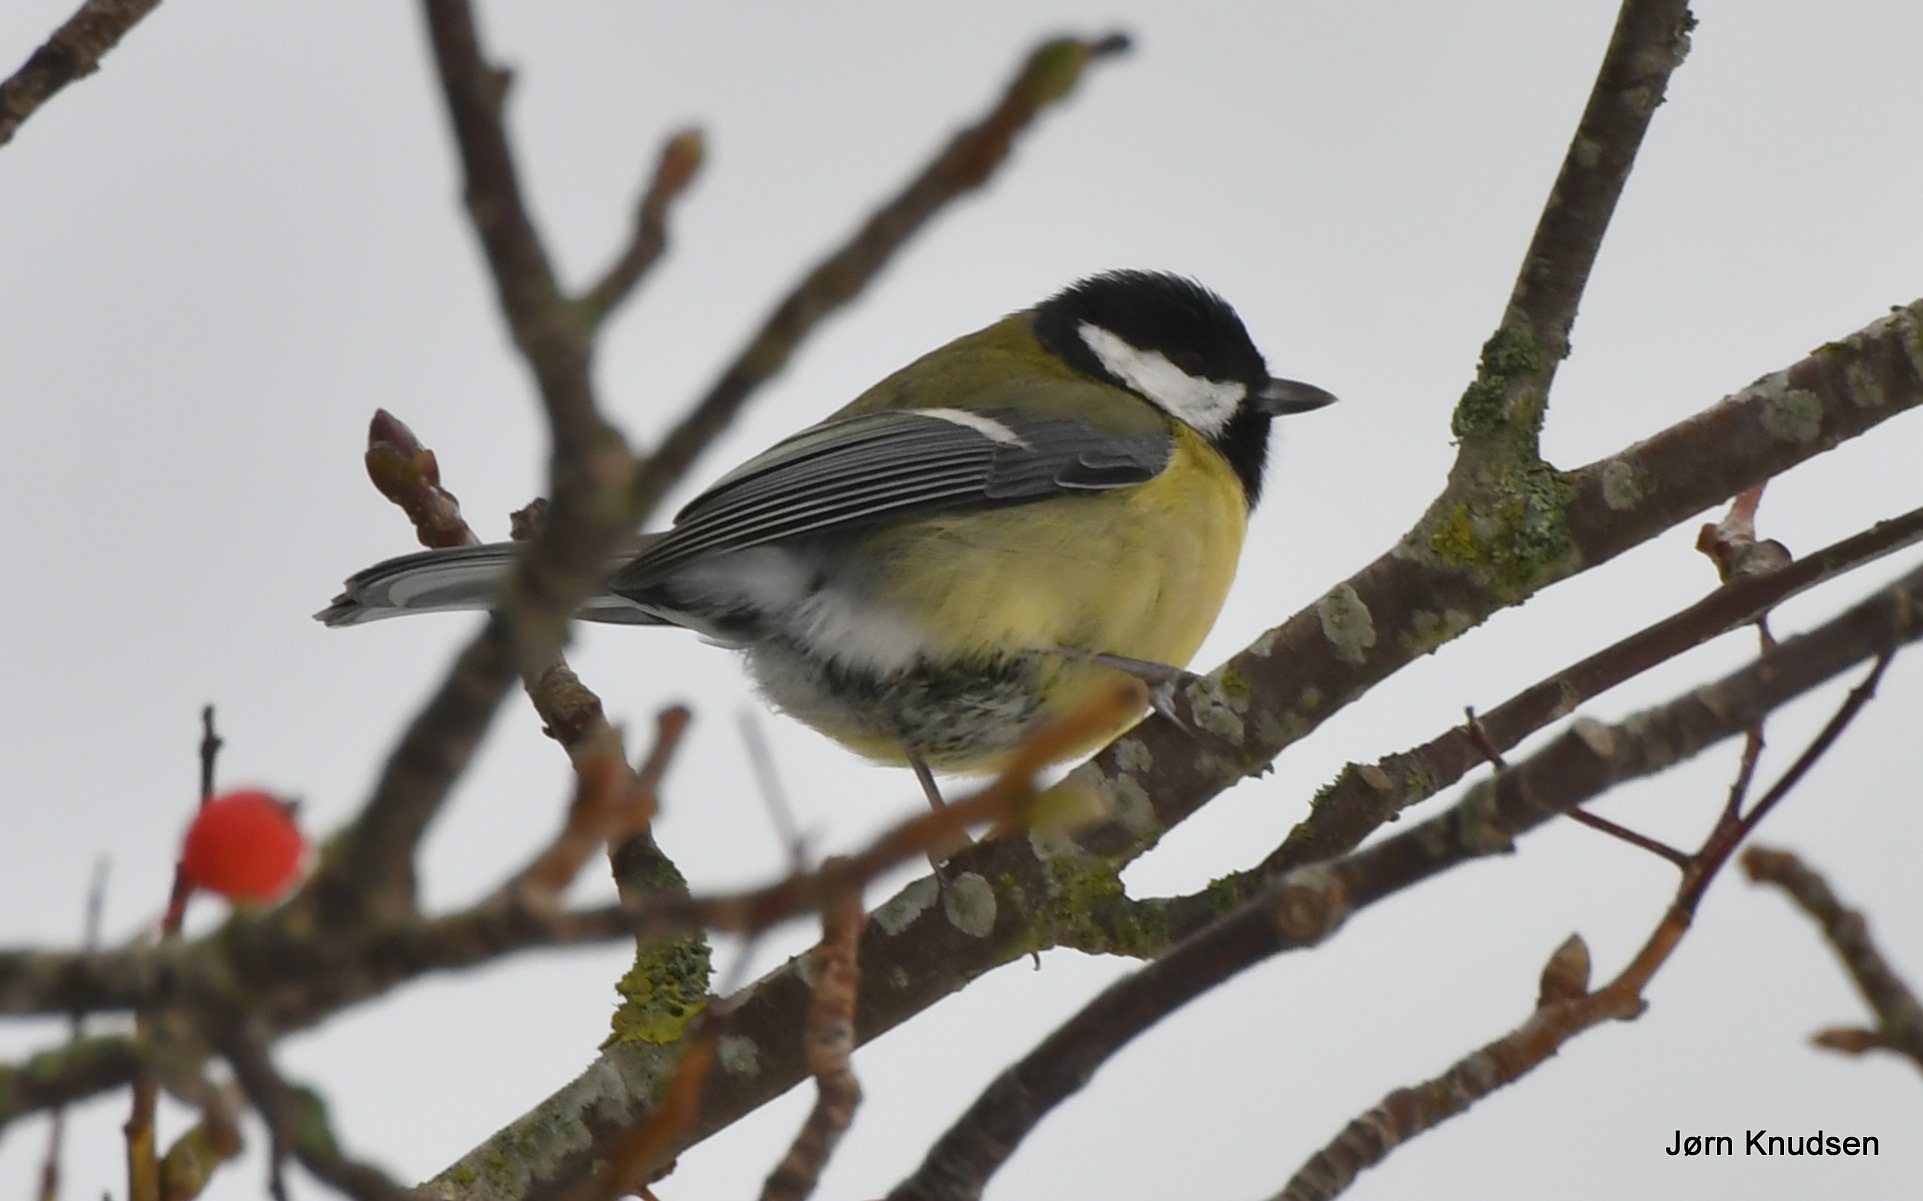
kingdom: Animalia
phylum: Chordata
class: Aves
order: Passeriformes
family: Paridae
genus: Parus
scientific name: Parus major
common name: Musvit
